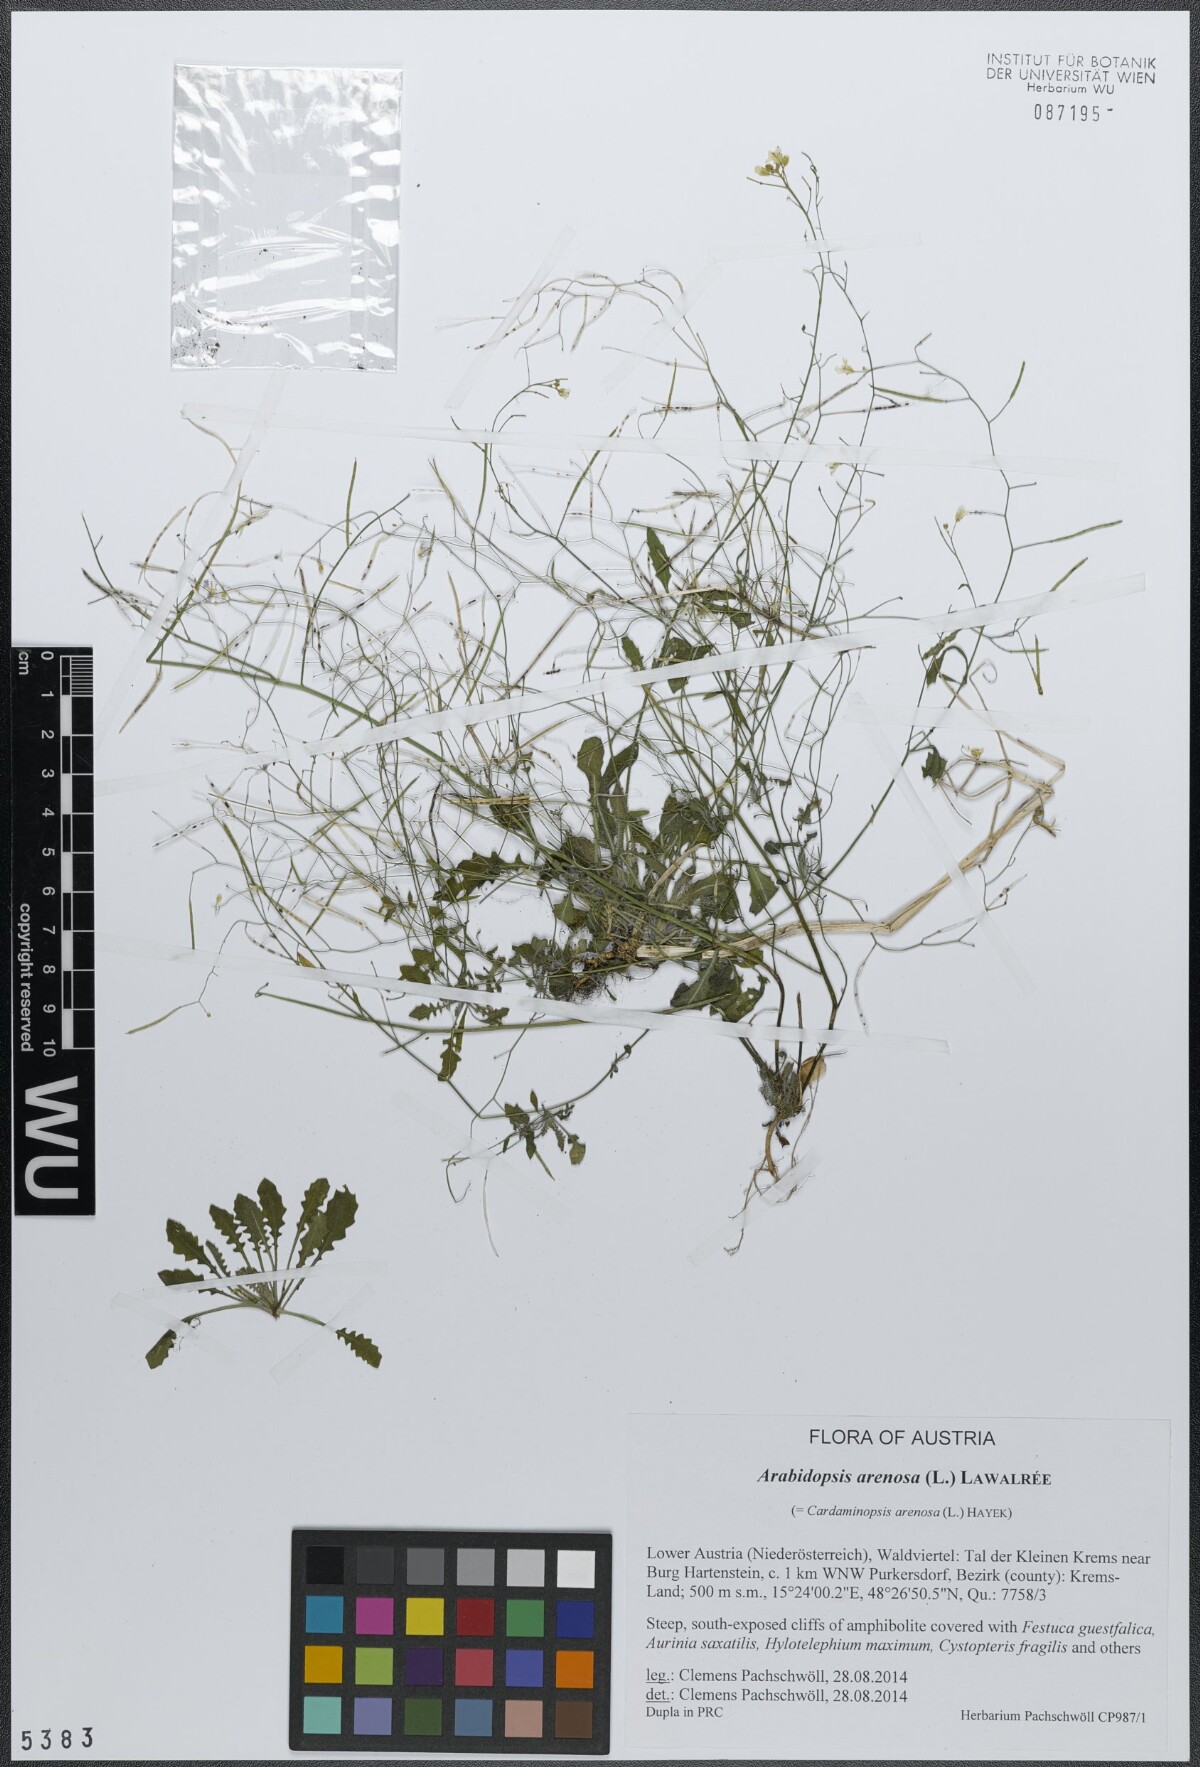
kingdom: Plantae
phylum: Tracheophyta
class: Magnoliopsida
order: Brassicales
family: Brassicaceae
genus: Arabidopsis
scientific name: Arabidopsis arenosa
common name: Sand rock-cress
